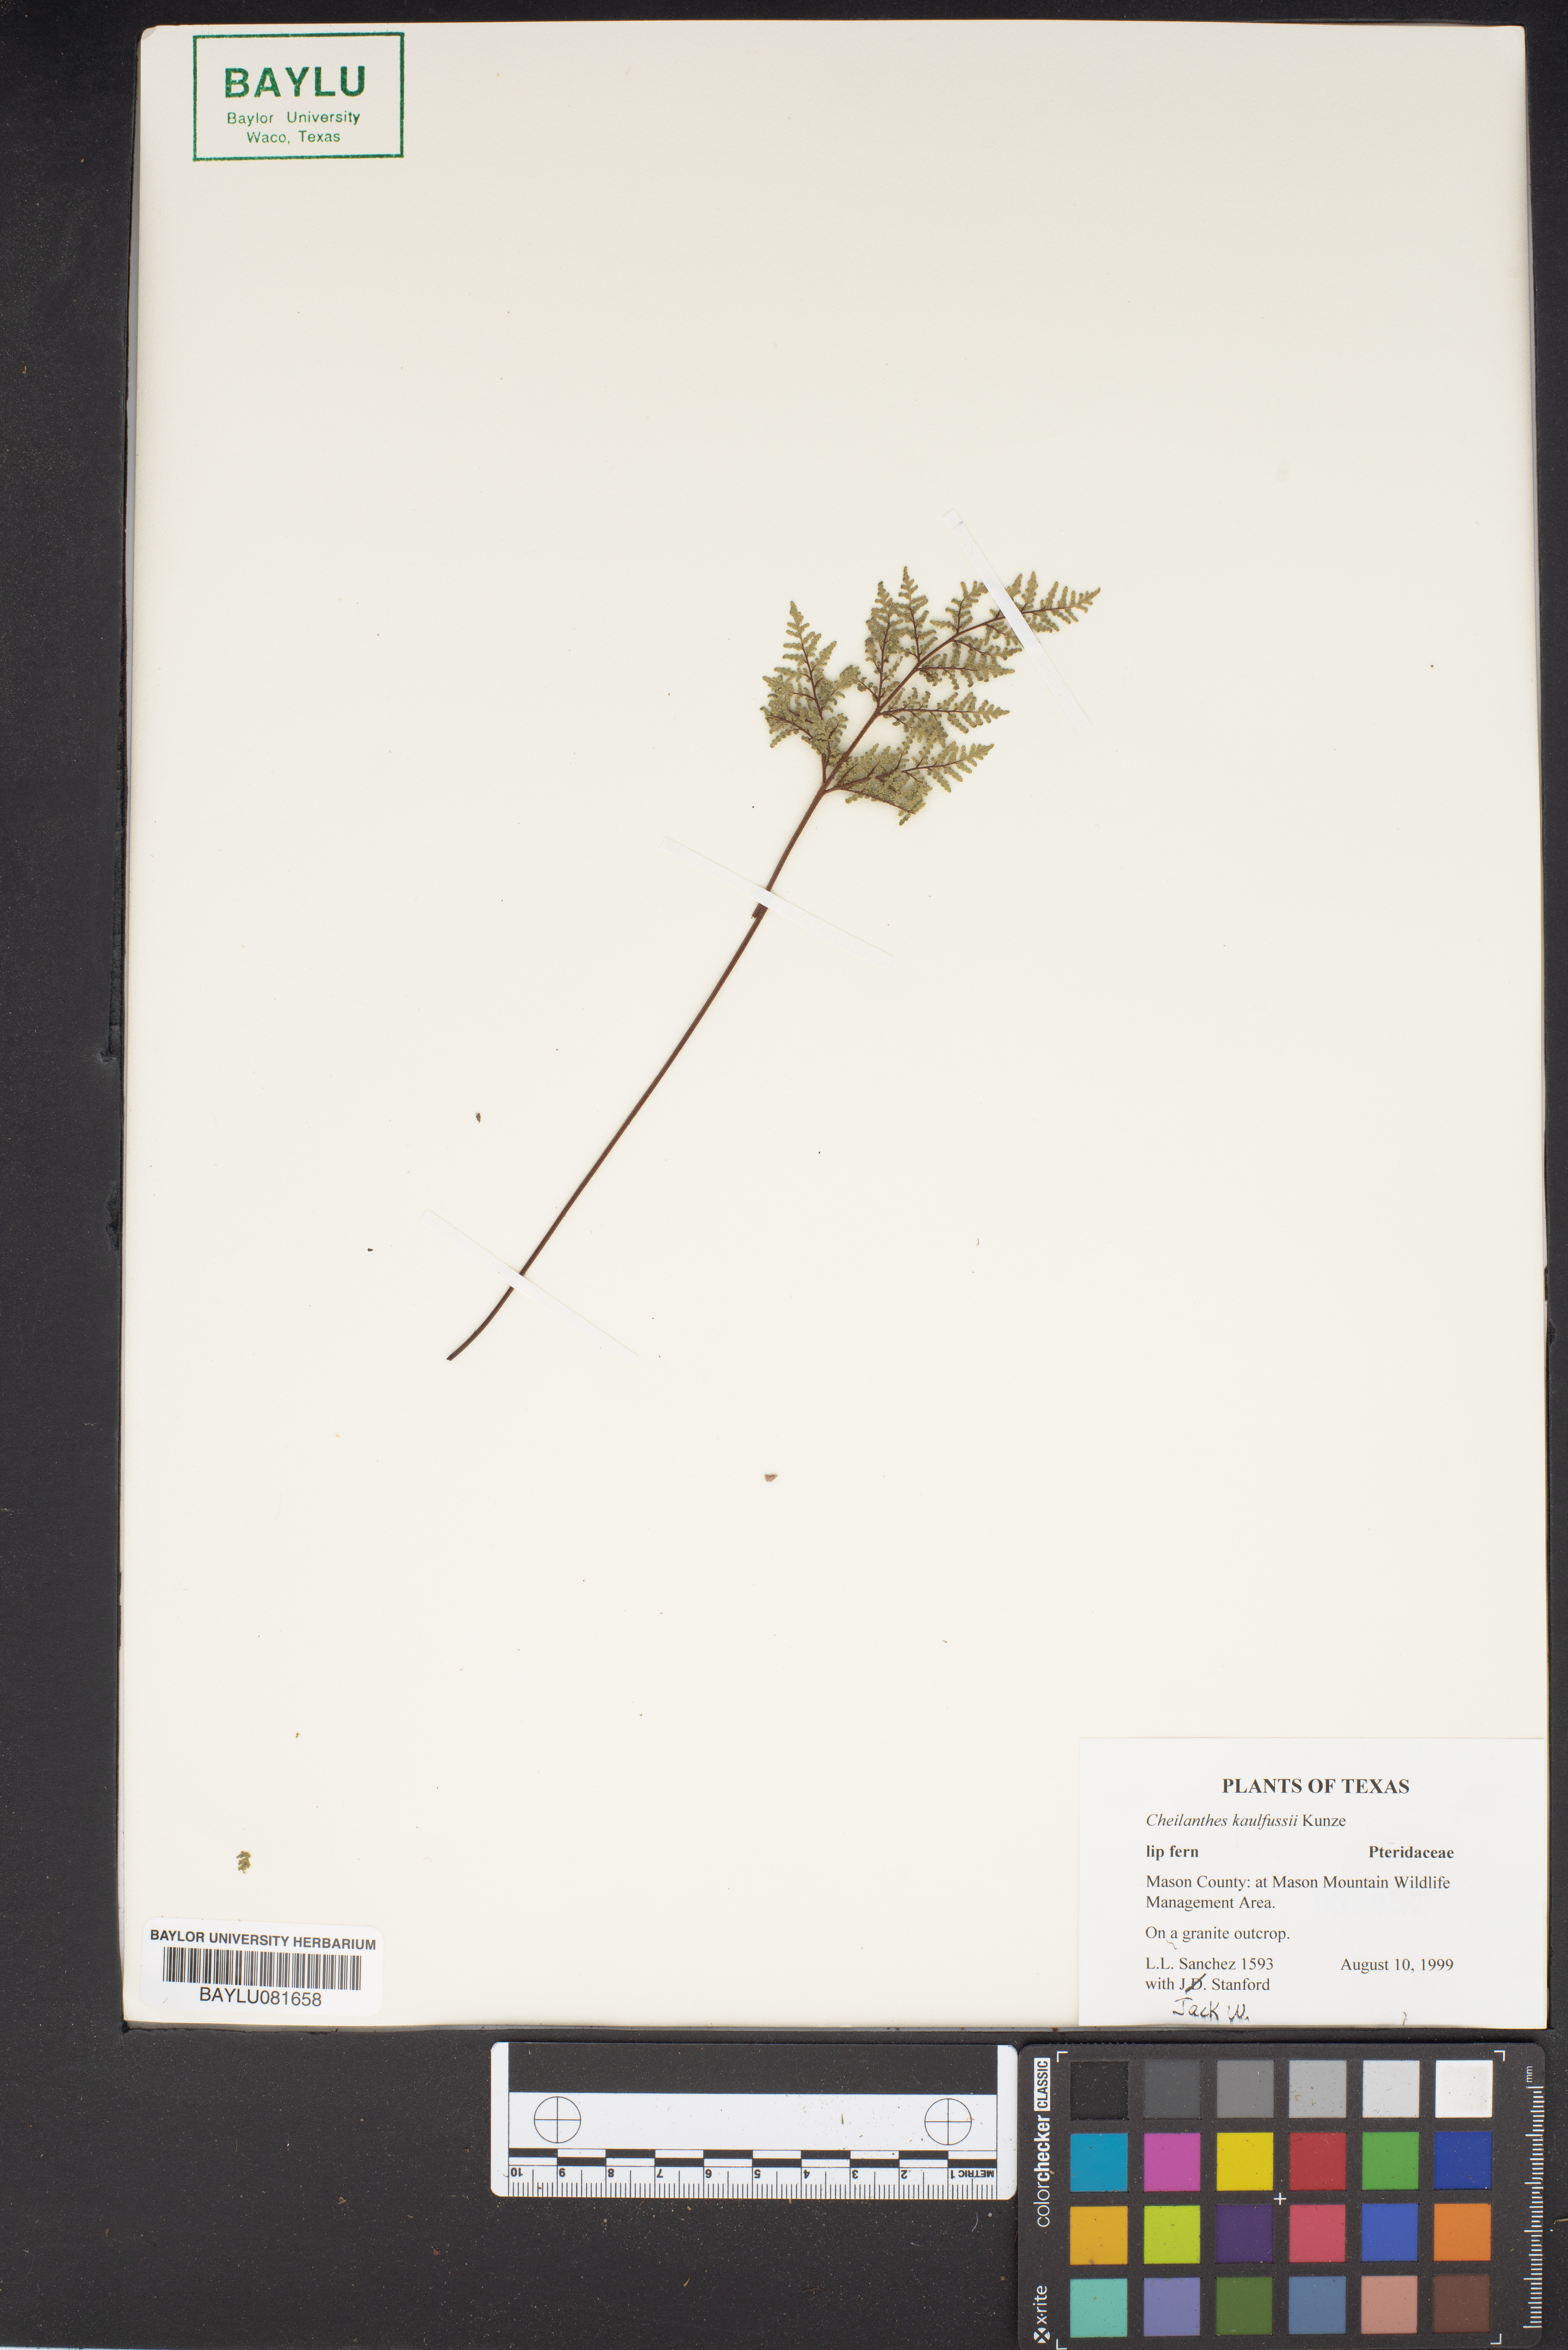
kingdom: Plantae
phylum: Tracheophyta
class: Polypodiopsida
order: Polypodiales
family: Pteridaceae
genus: Gaga
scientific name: Gaga kaulfussii
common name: Glandular lip fern
